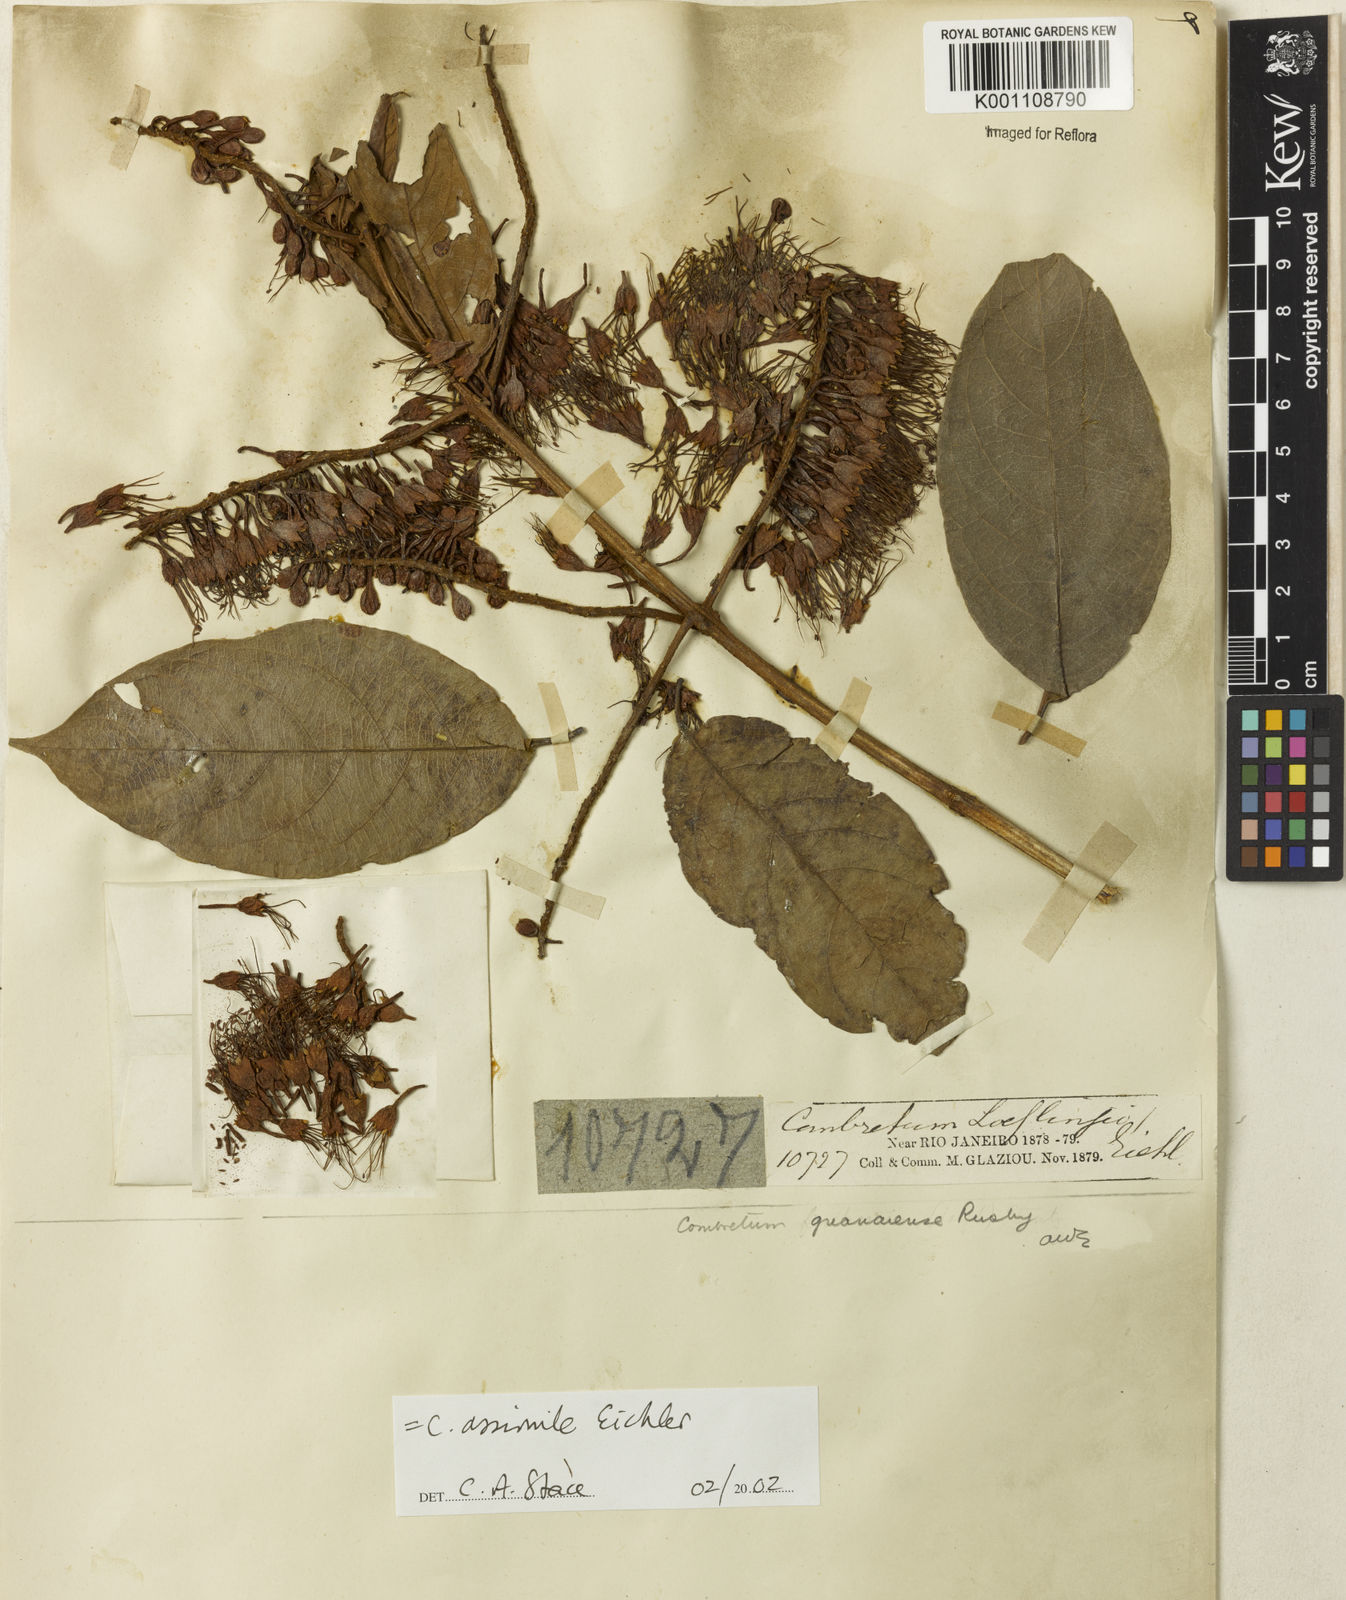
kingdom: Plantae
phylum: Tracheophyta
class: Magnoliopsida
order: Myrtales
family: Combretaceae
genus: Combretum
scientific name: Combretum assimile
